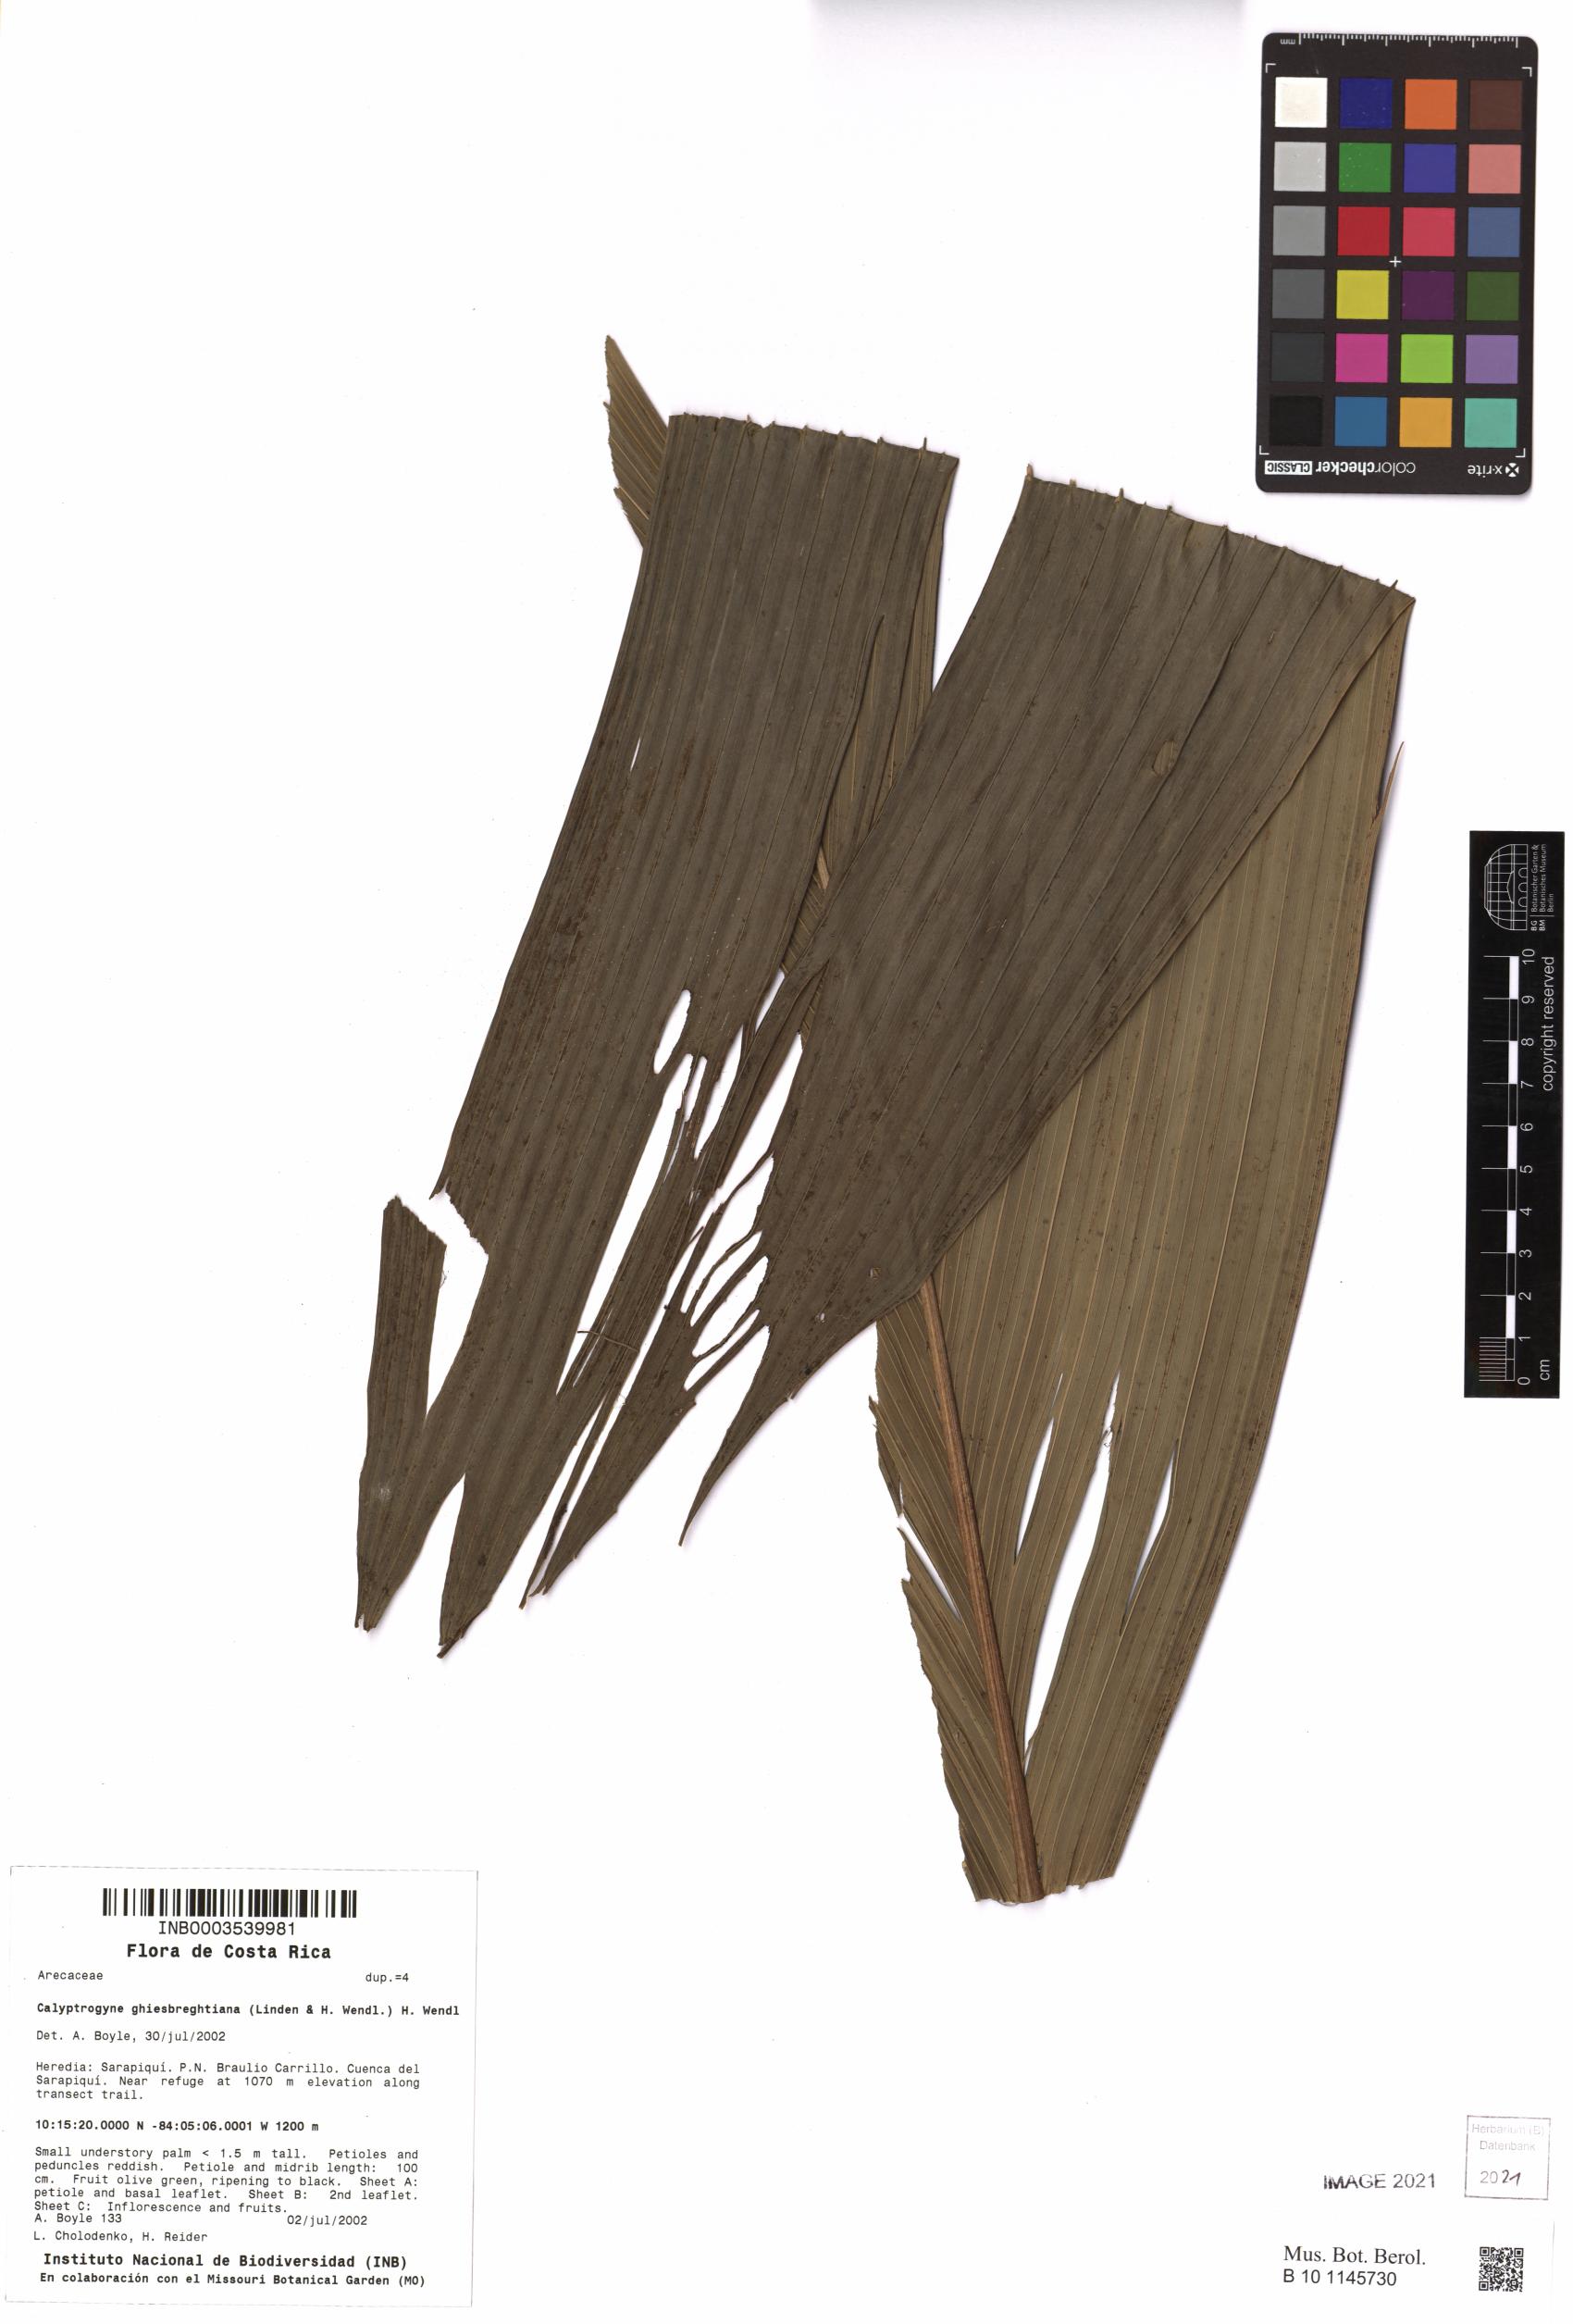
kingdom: Plantae
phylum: Tracheophyta
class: Liliopsida
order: Arecales
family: Arecaceae
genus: Calyptrogyne
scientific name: Calyptrogyne ghiesbreghtiana
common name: Coligallo
